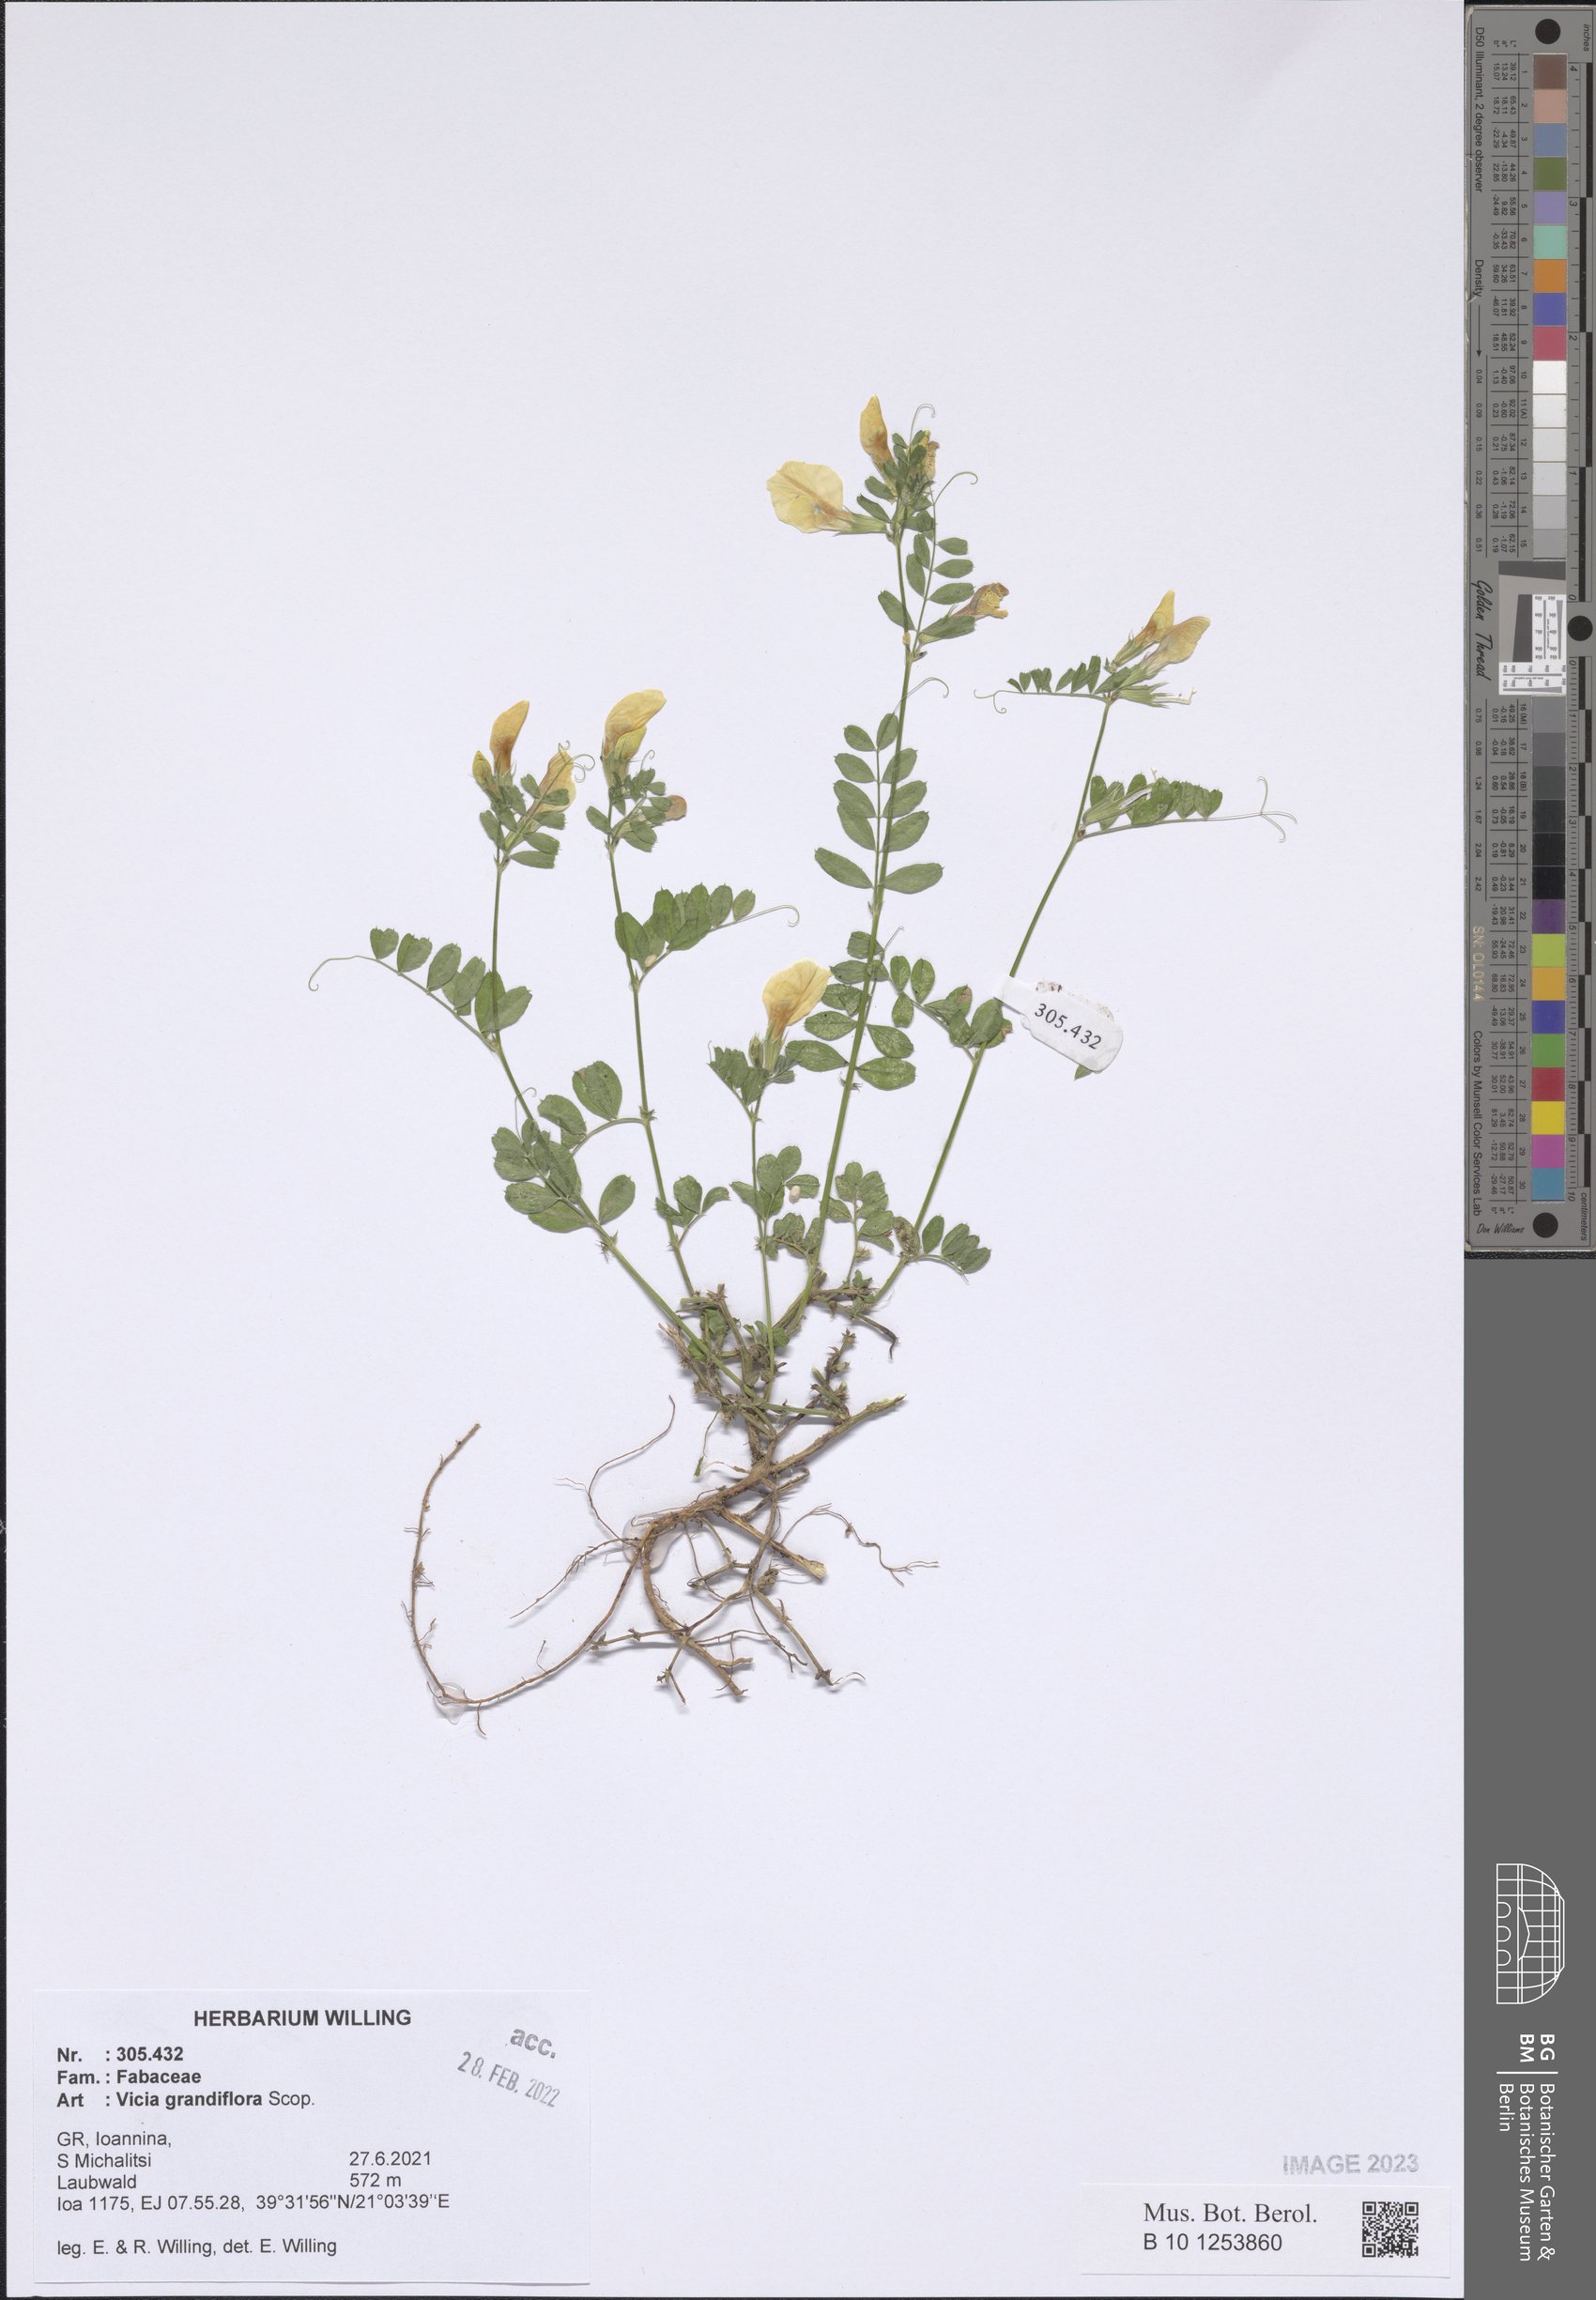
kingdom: Plantae
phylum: Tracheophyta
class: Magnoliopsida
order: Fabales
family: Fabaceae
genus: Vicia
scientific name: Vicia grandiflora
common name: Large yellow vetch
